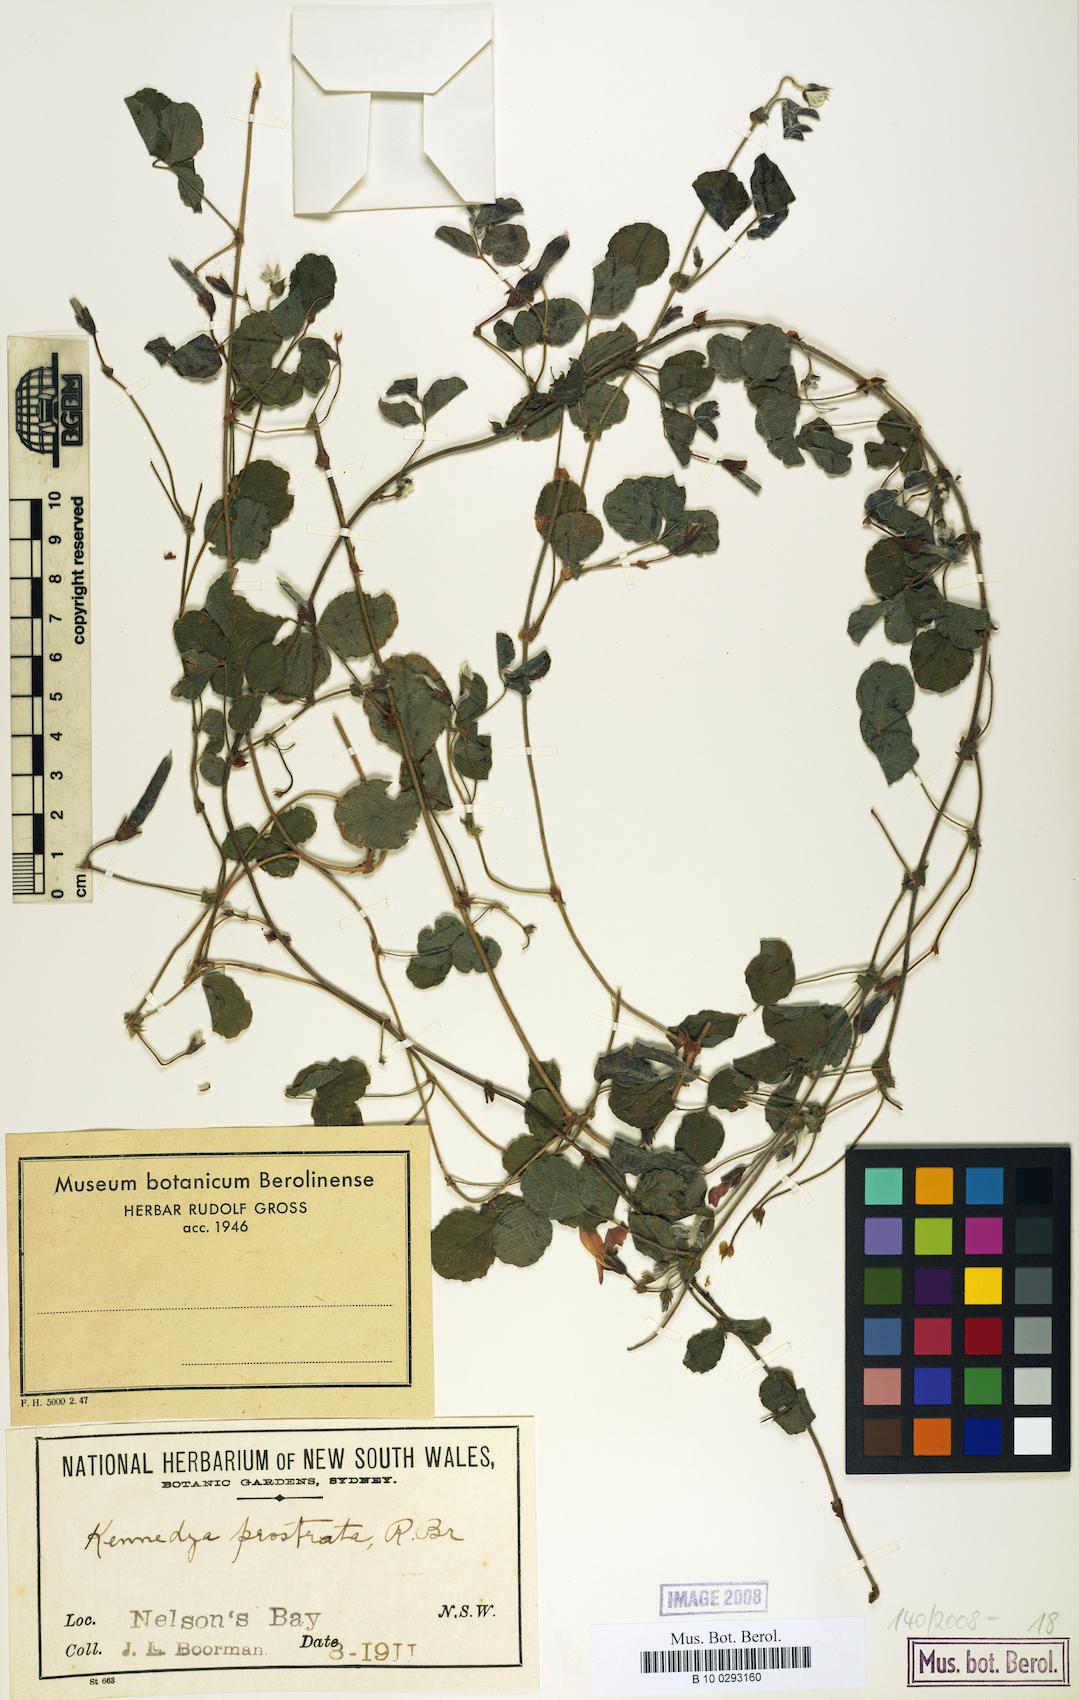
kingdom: Plantae
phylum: Tracheophyta
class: Magnoliopsida
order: Fabales
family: Fabaceae
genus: Kennedia
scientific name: Kennedia prostrata
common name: Running-postman
